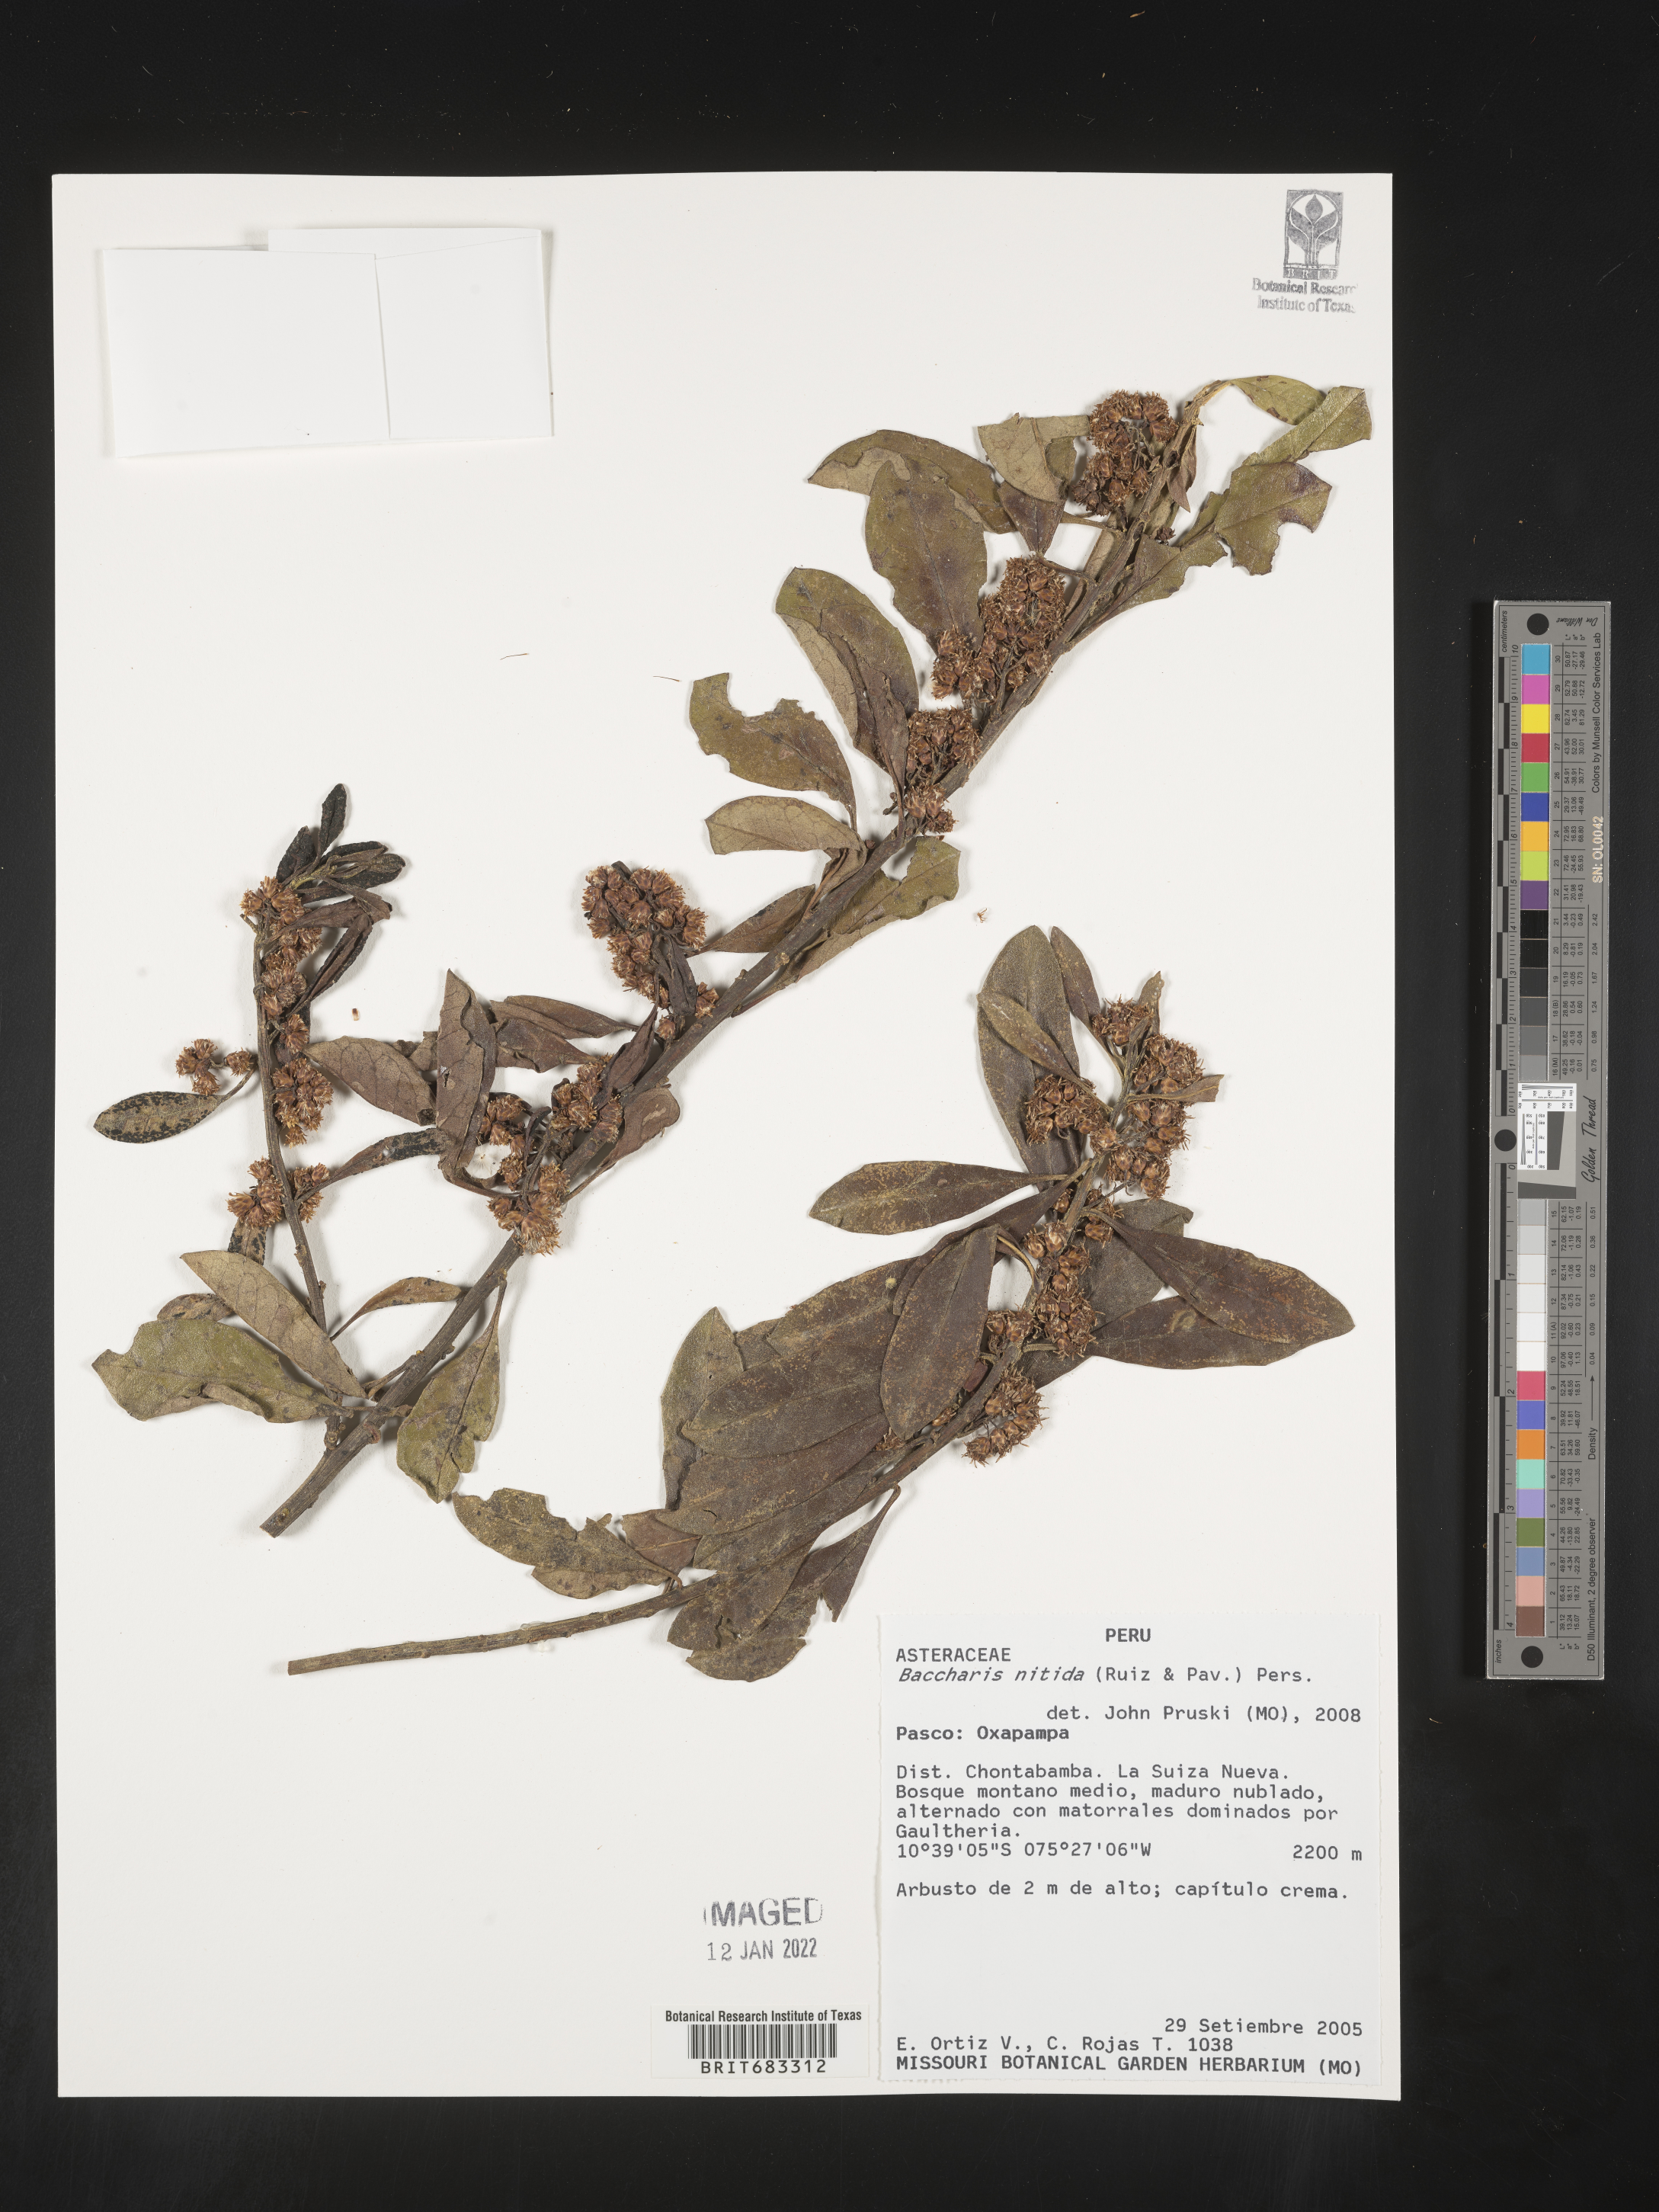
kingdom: Plantae
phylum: Tracheophyta
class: Magnoliopsida
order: Asterales
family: Asteraceae
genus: Baccharis
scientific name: Baccharis
